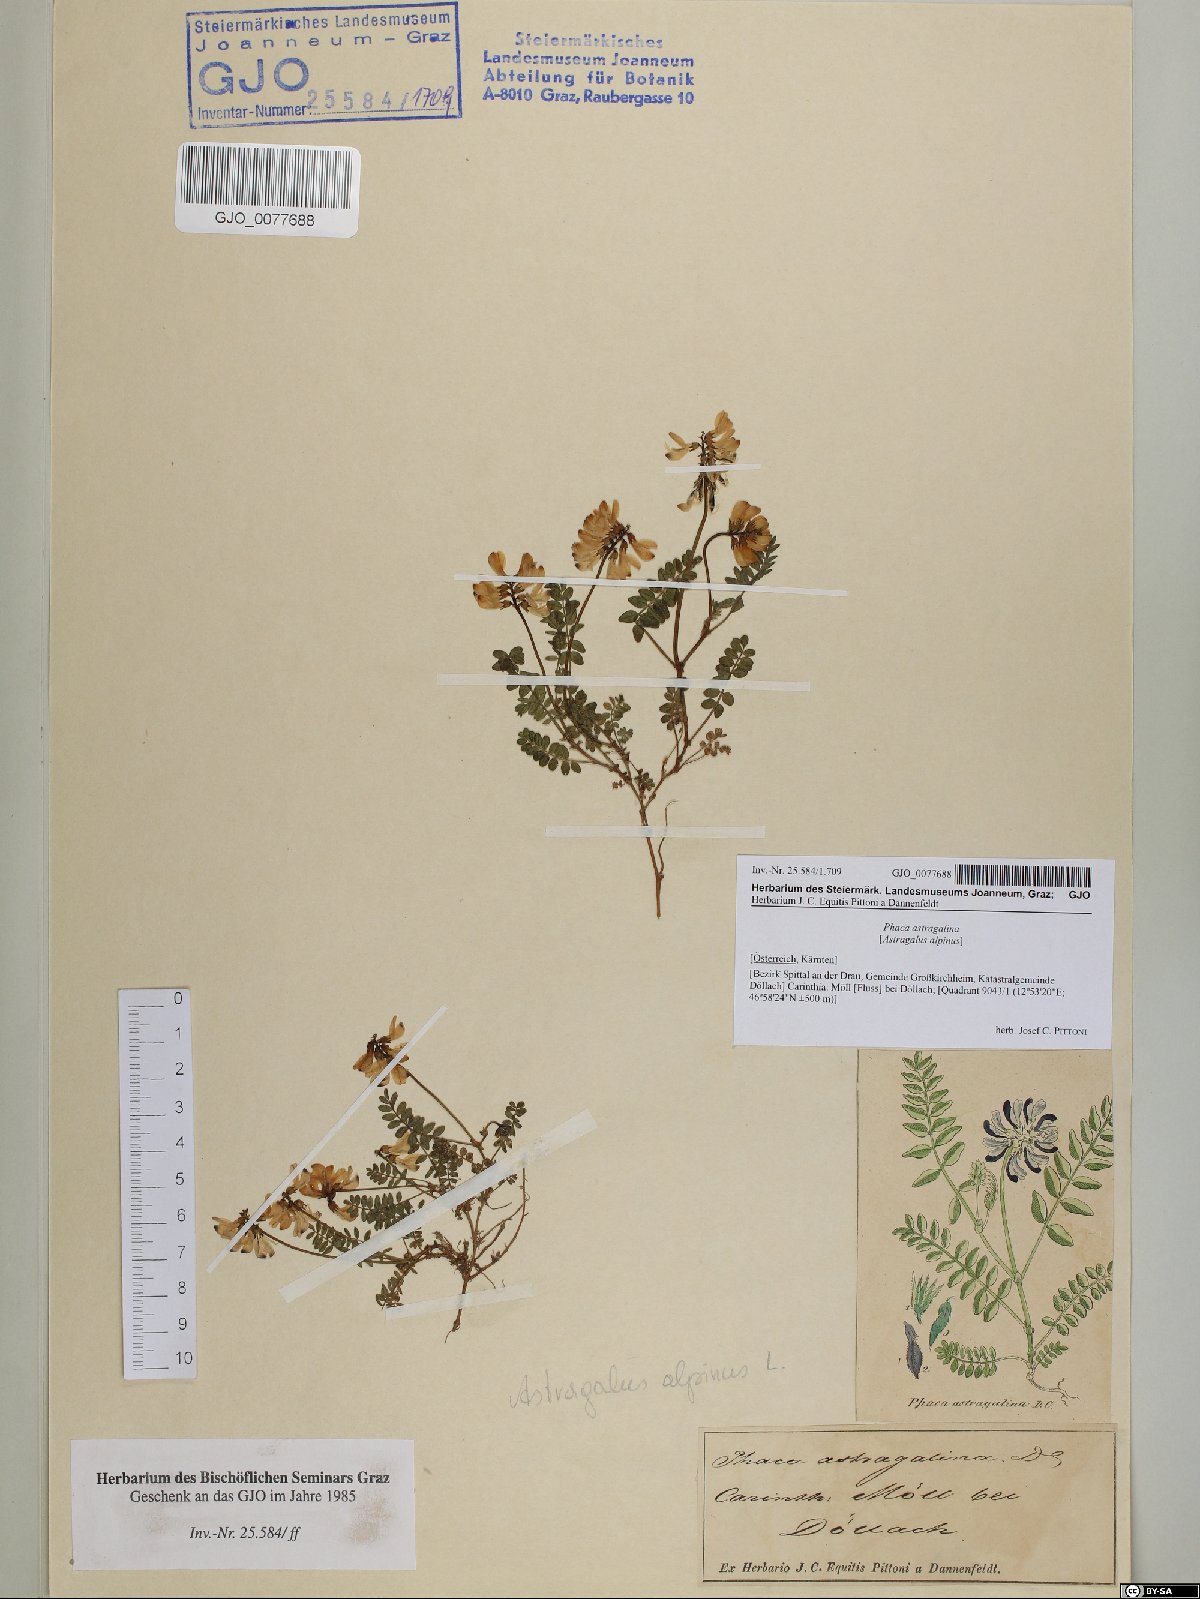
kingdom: Plantae
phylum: Tracheophyta
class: Magnoliopsida
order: Fabales
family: Fabaceae
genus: Astragalus
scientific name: Astragalus alpinus
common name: Alpine milk-vetch
